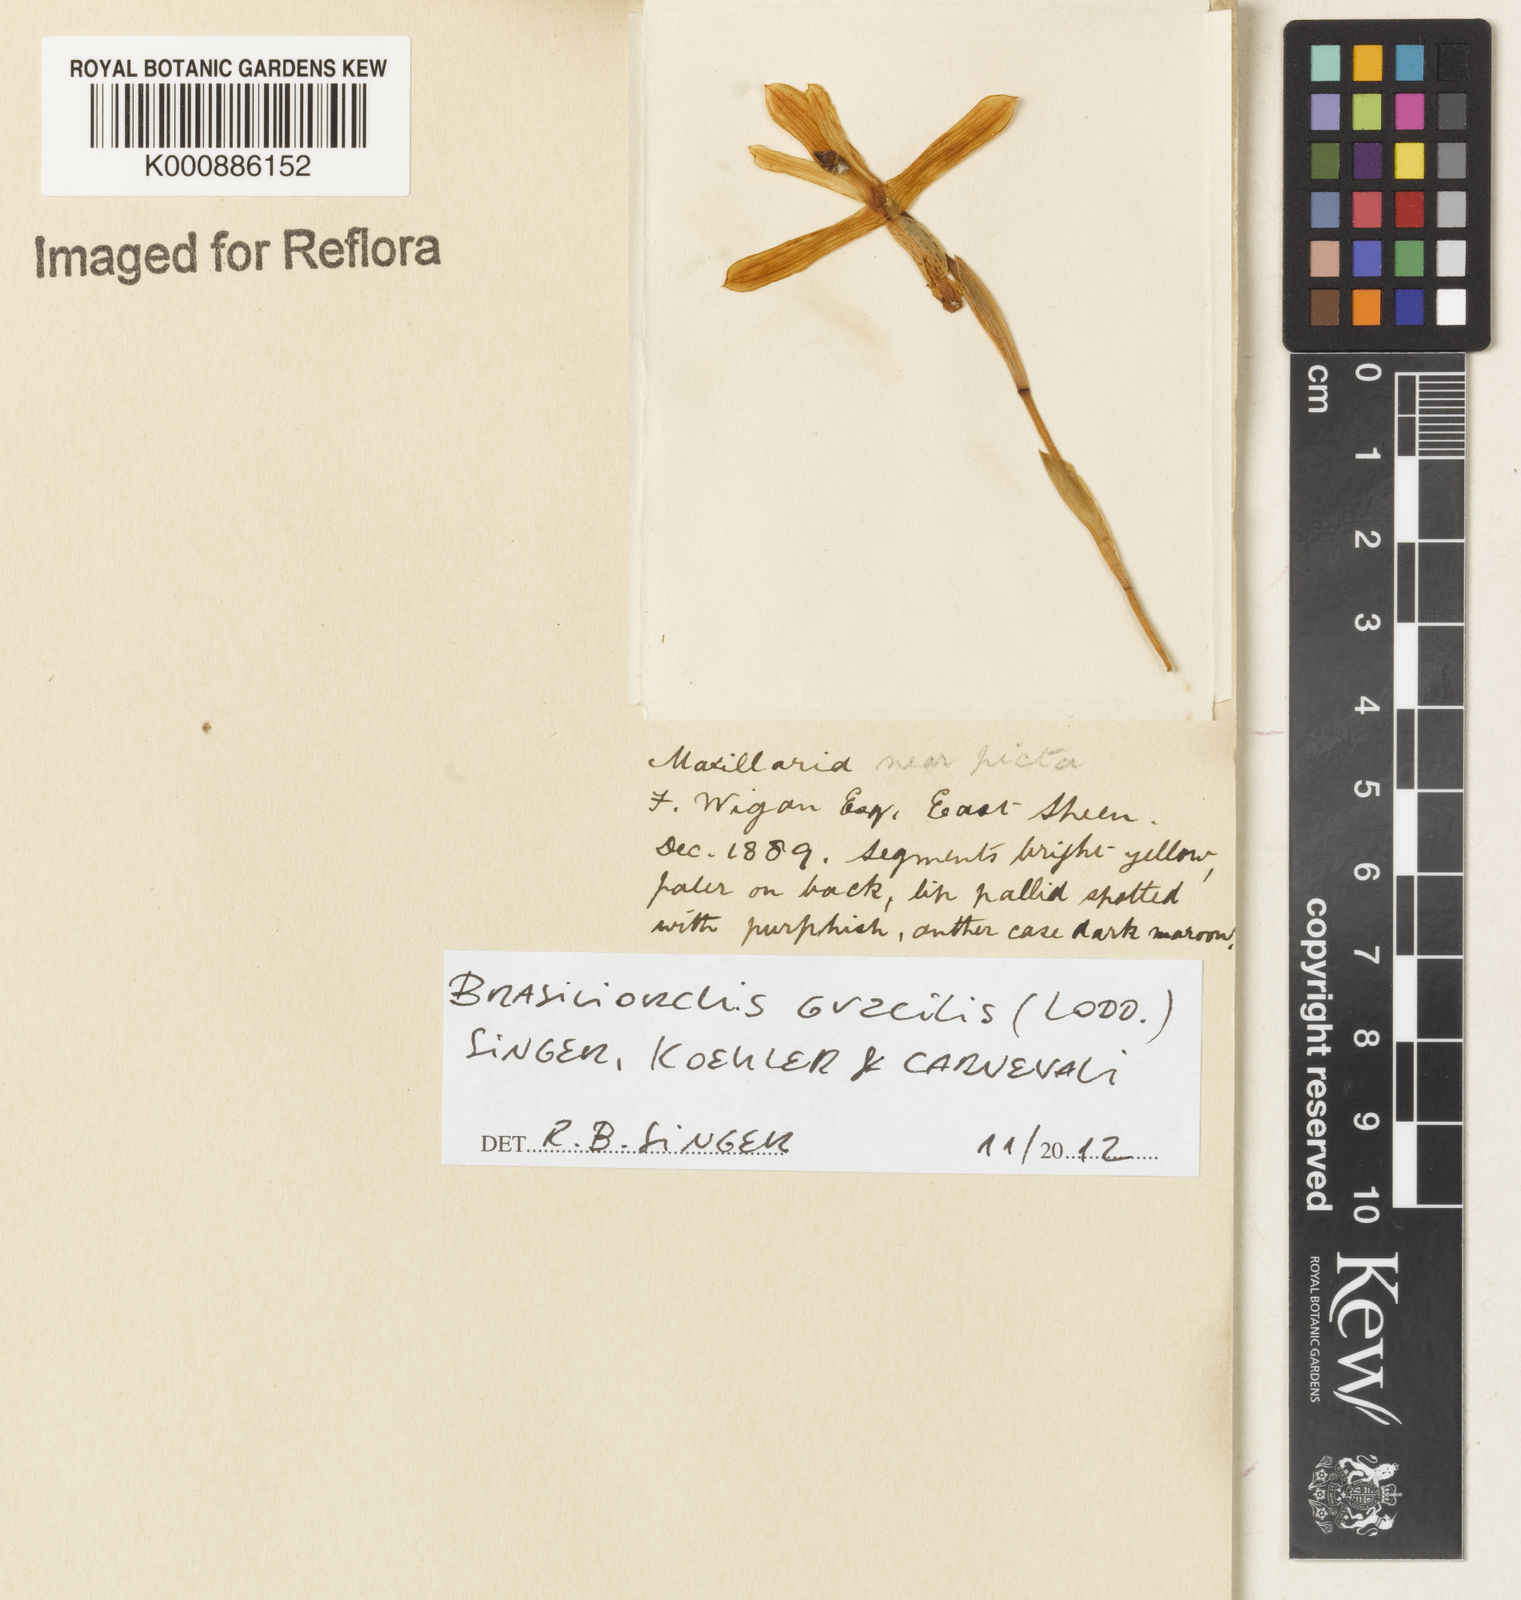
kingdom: Plantae
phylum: Tracheophyta
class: Liliopsida
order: Asparagales
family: Orchidaceae
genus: Maxillaria
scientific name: Maxillaria
